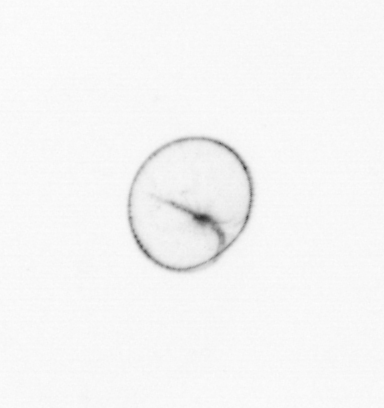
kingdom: Chromista
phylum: Myzozoa
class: Dinophyceae
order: Noctilucales
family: Noctilucaceae
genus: Noctiluca
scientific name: Noctiluca scintillans
